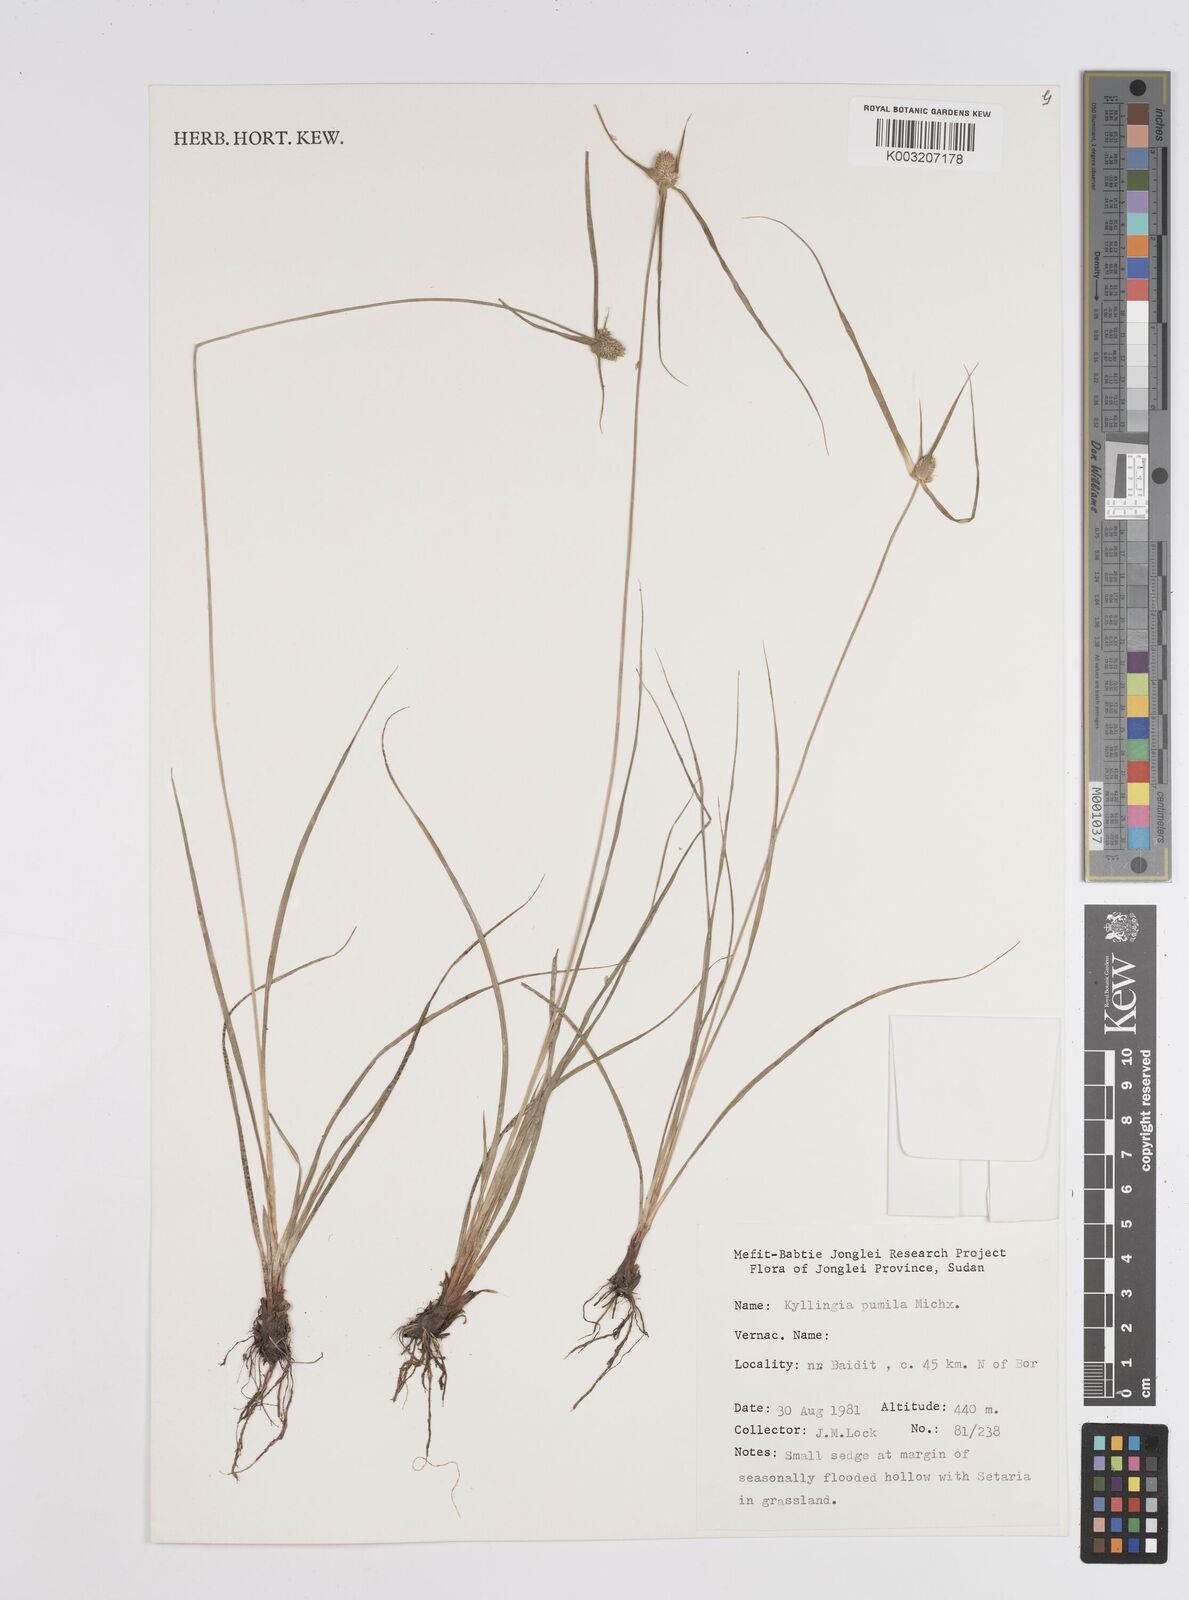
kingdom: Plantae
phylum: Tracheophyta
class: Liliopsida
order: Poales
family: Cyperaceae
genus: Cyperus
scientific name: Cyperus
